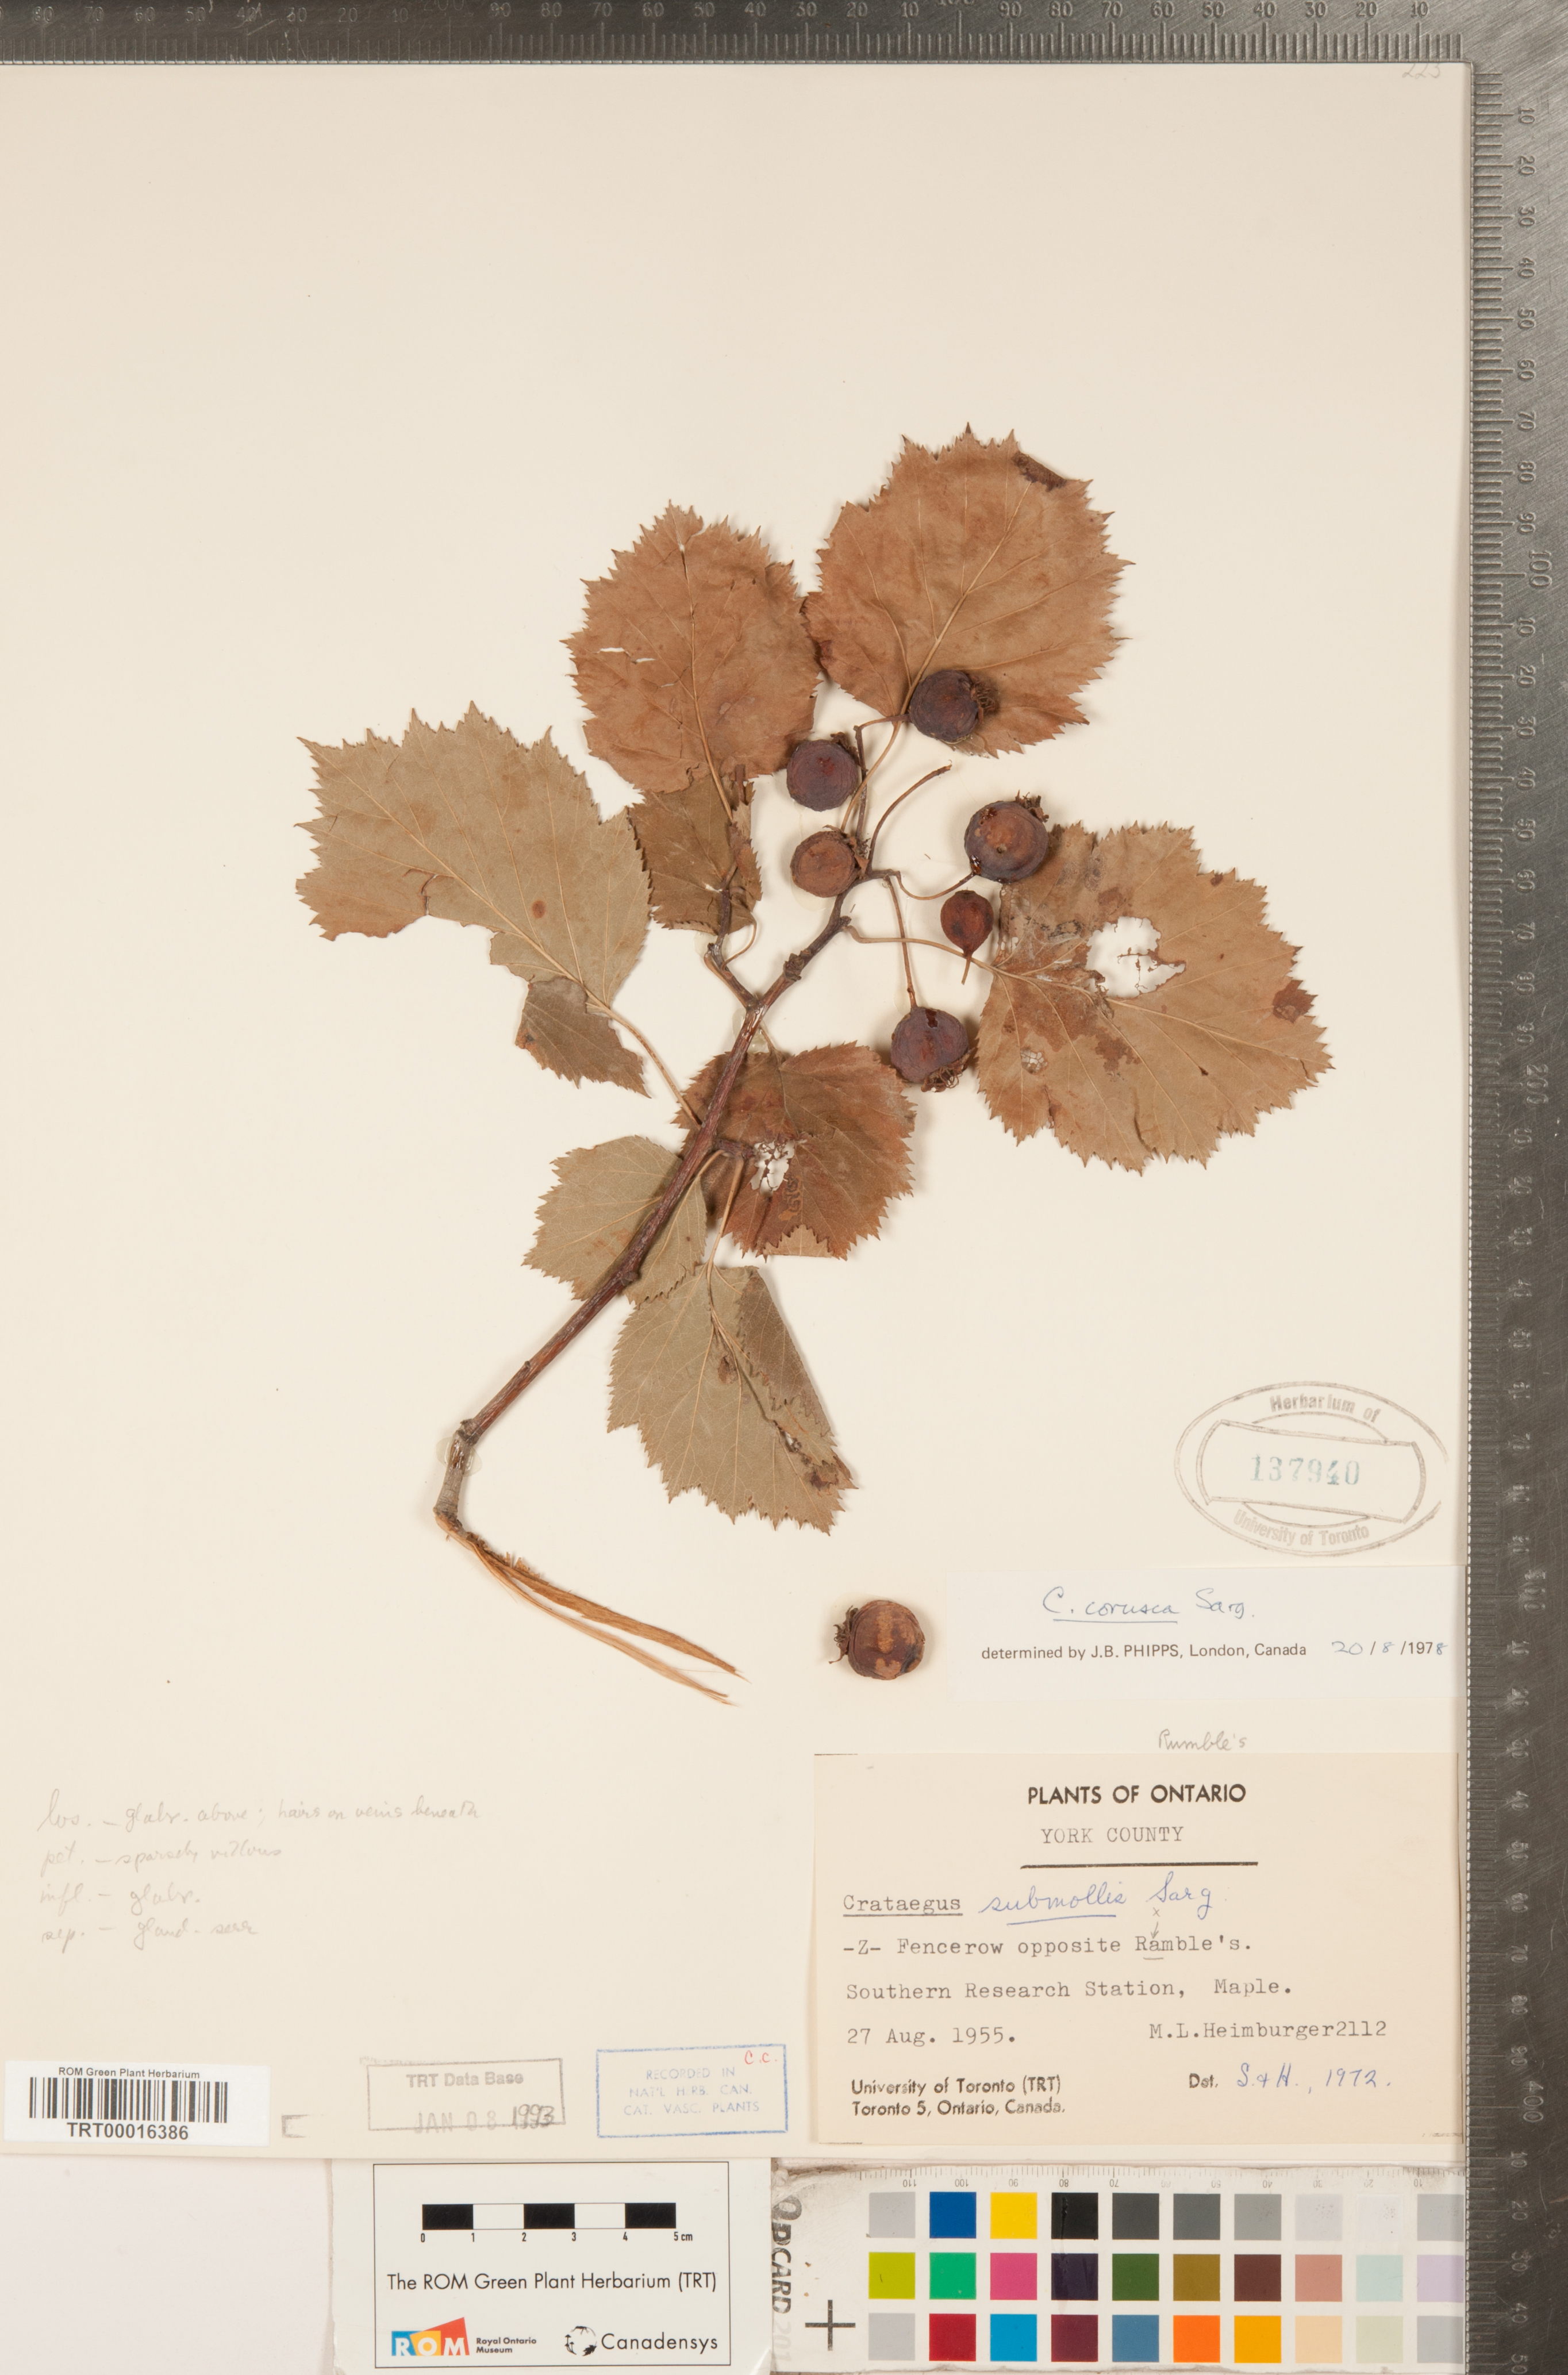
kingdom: Plantae
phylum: Tracheophyta
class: Magnoliopsida
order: Rosales
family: Rosaceae
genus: Crataegus
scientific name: Crataegus corusca
